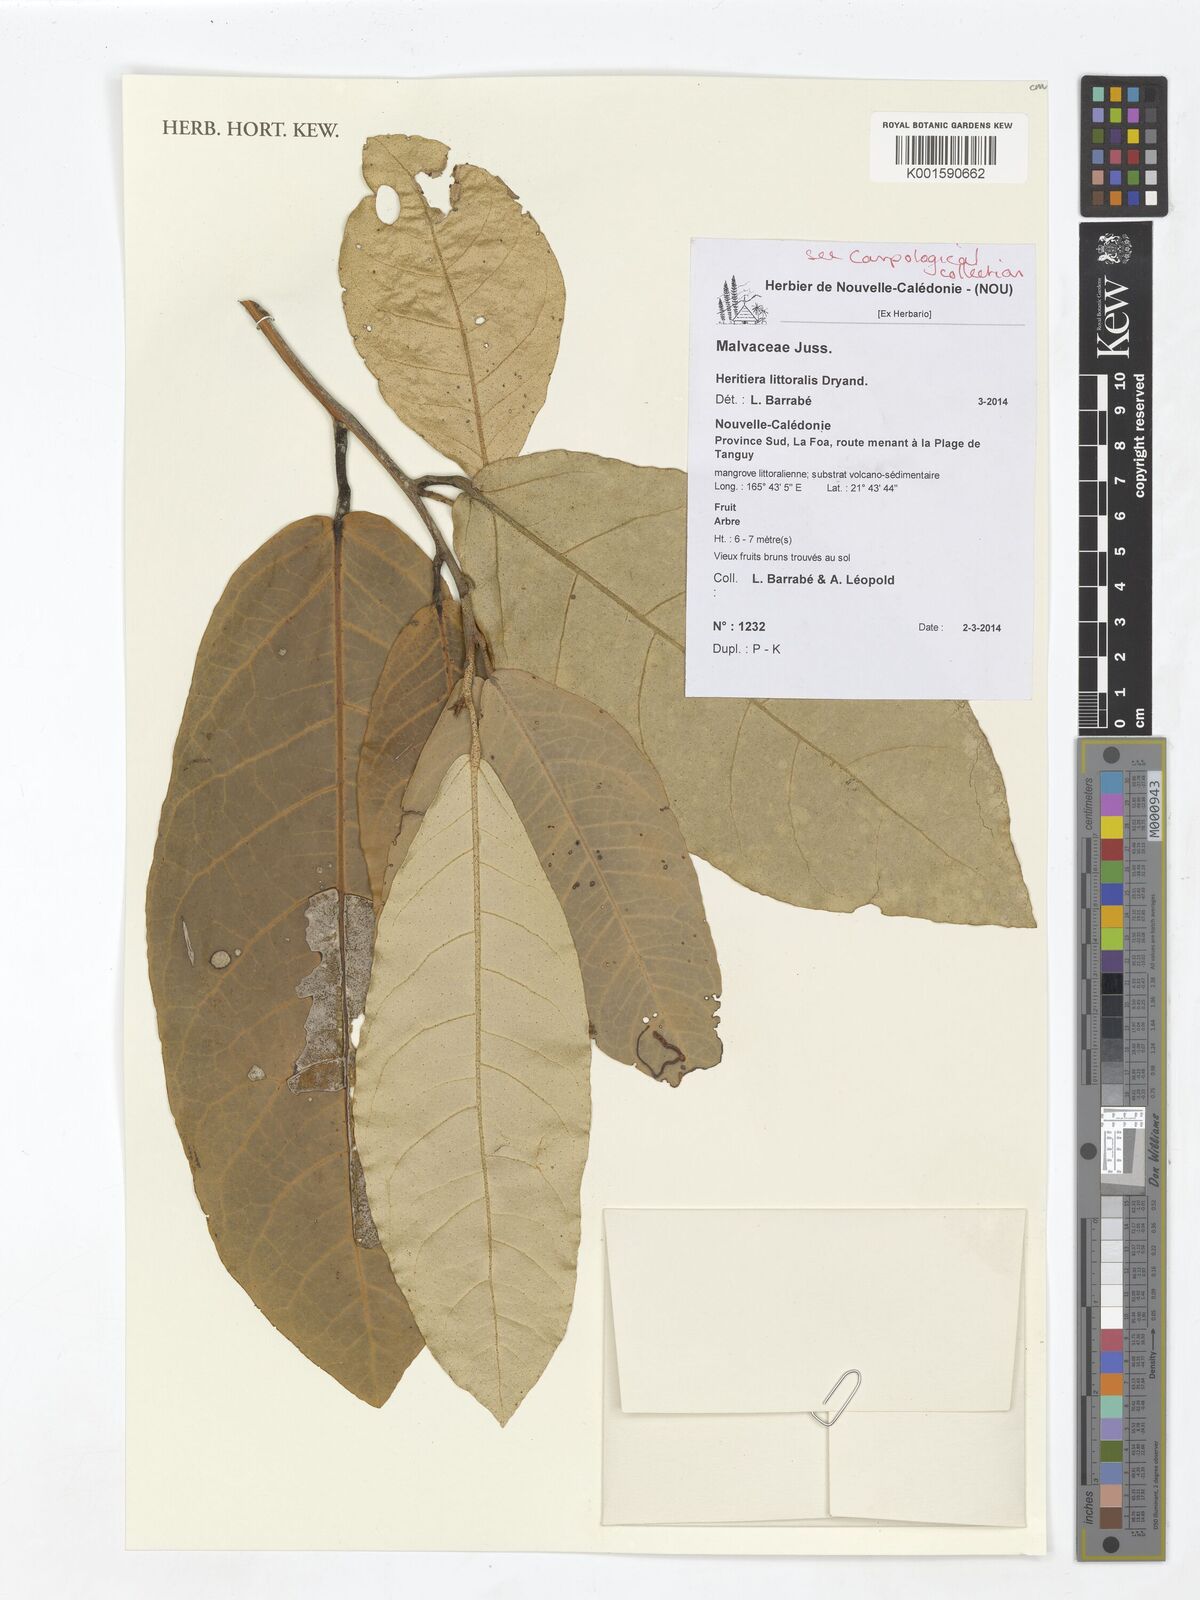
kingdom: Plantae
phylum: Tracheophyta
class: Magnoliopsida
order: Malvales
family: Malvaceae
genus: Heritiera
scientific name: Heritiera littoralis
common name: Looking-glass mangrove
